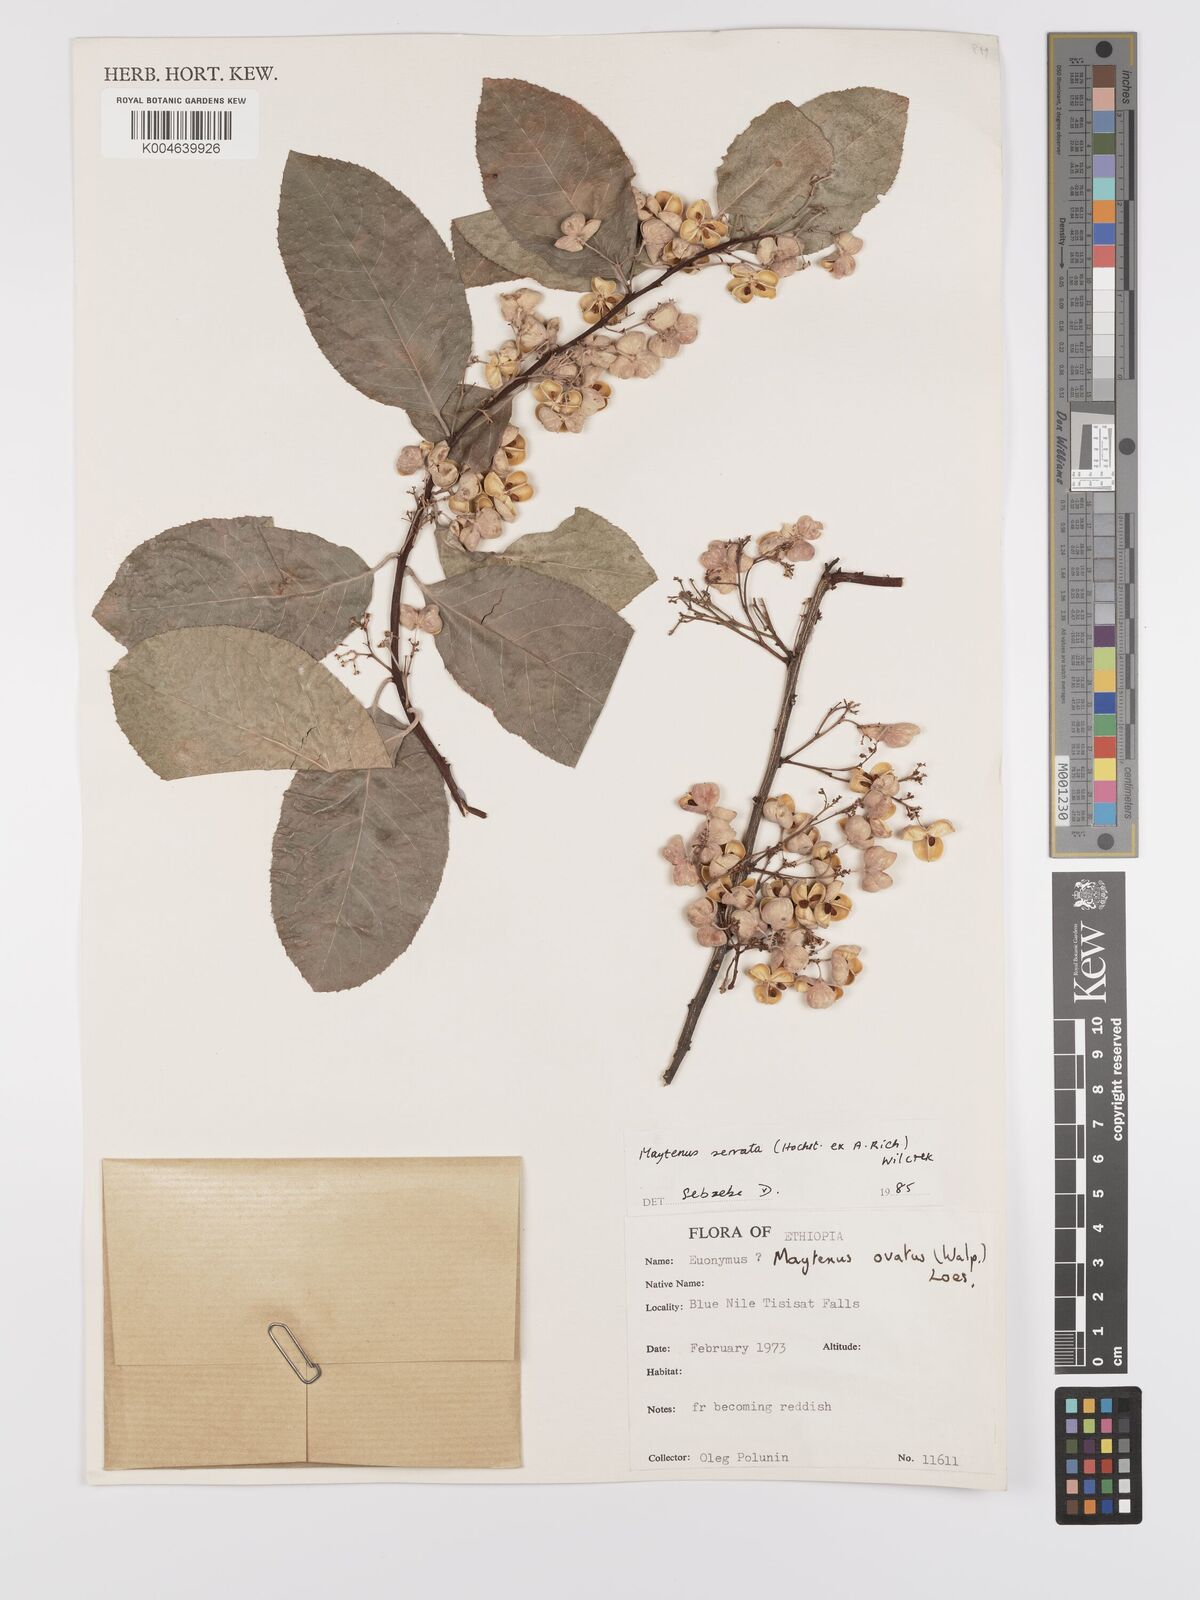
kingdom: Plantae
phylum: Tracheophyta
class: Magnoliopsida
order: Celastrales
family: Celastraceae
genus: Gymnosporia
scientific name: Gymnosporia serrata
